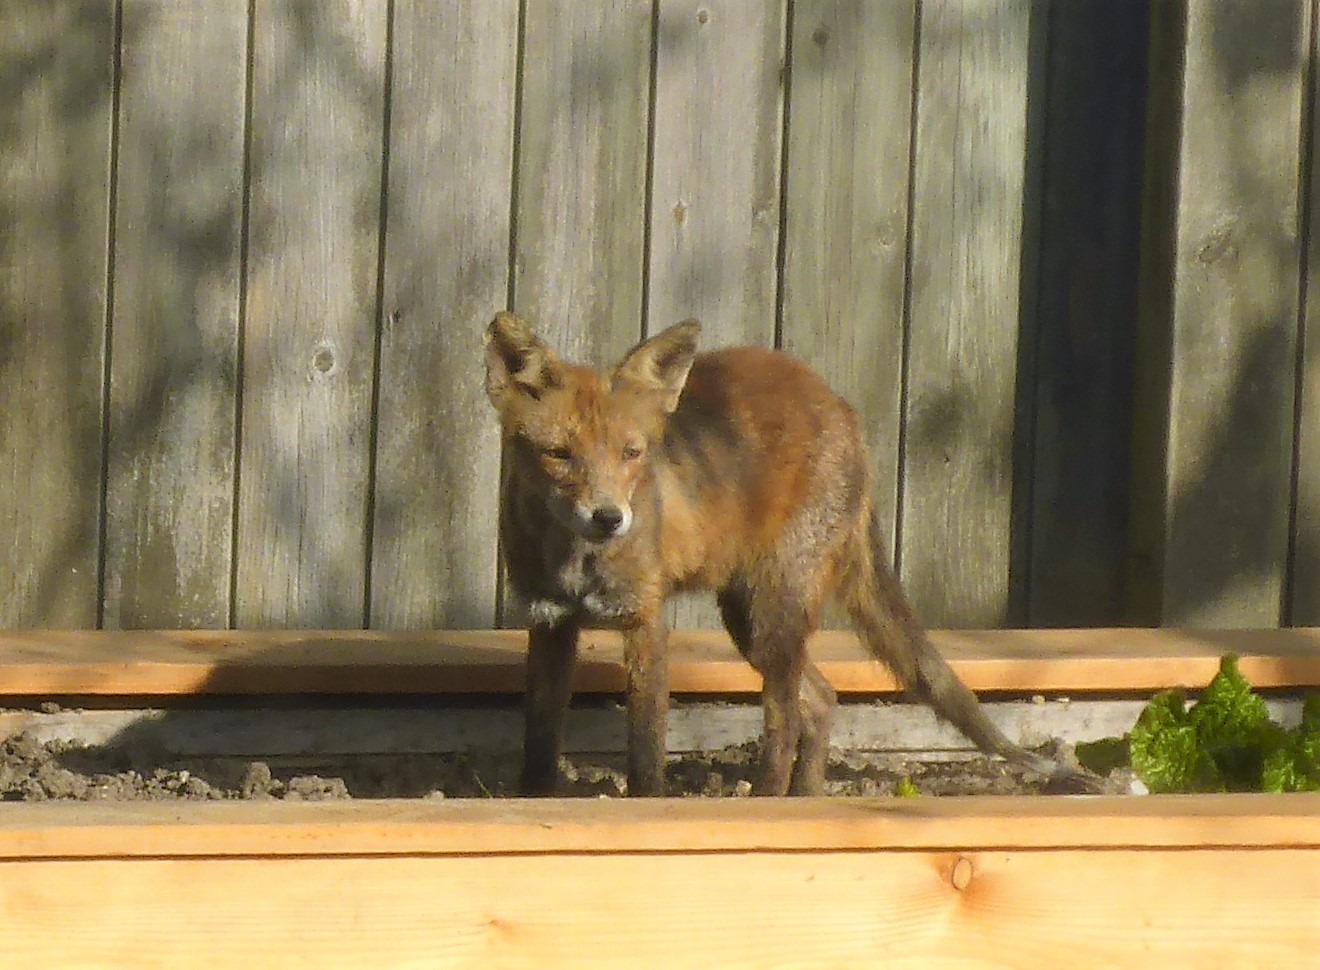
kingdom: Animalia
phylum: Chordata
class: Mammalia
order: Carnivora
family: Canidae
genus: Vulpes
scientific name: Vulpes vulpes
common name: Ræv
